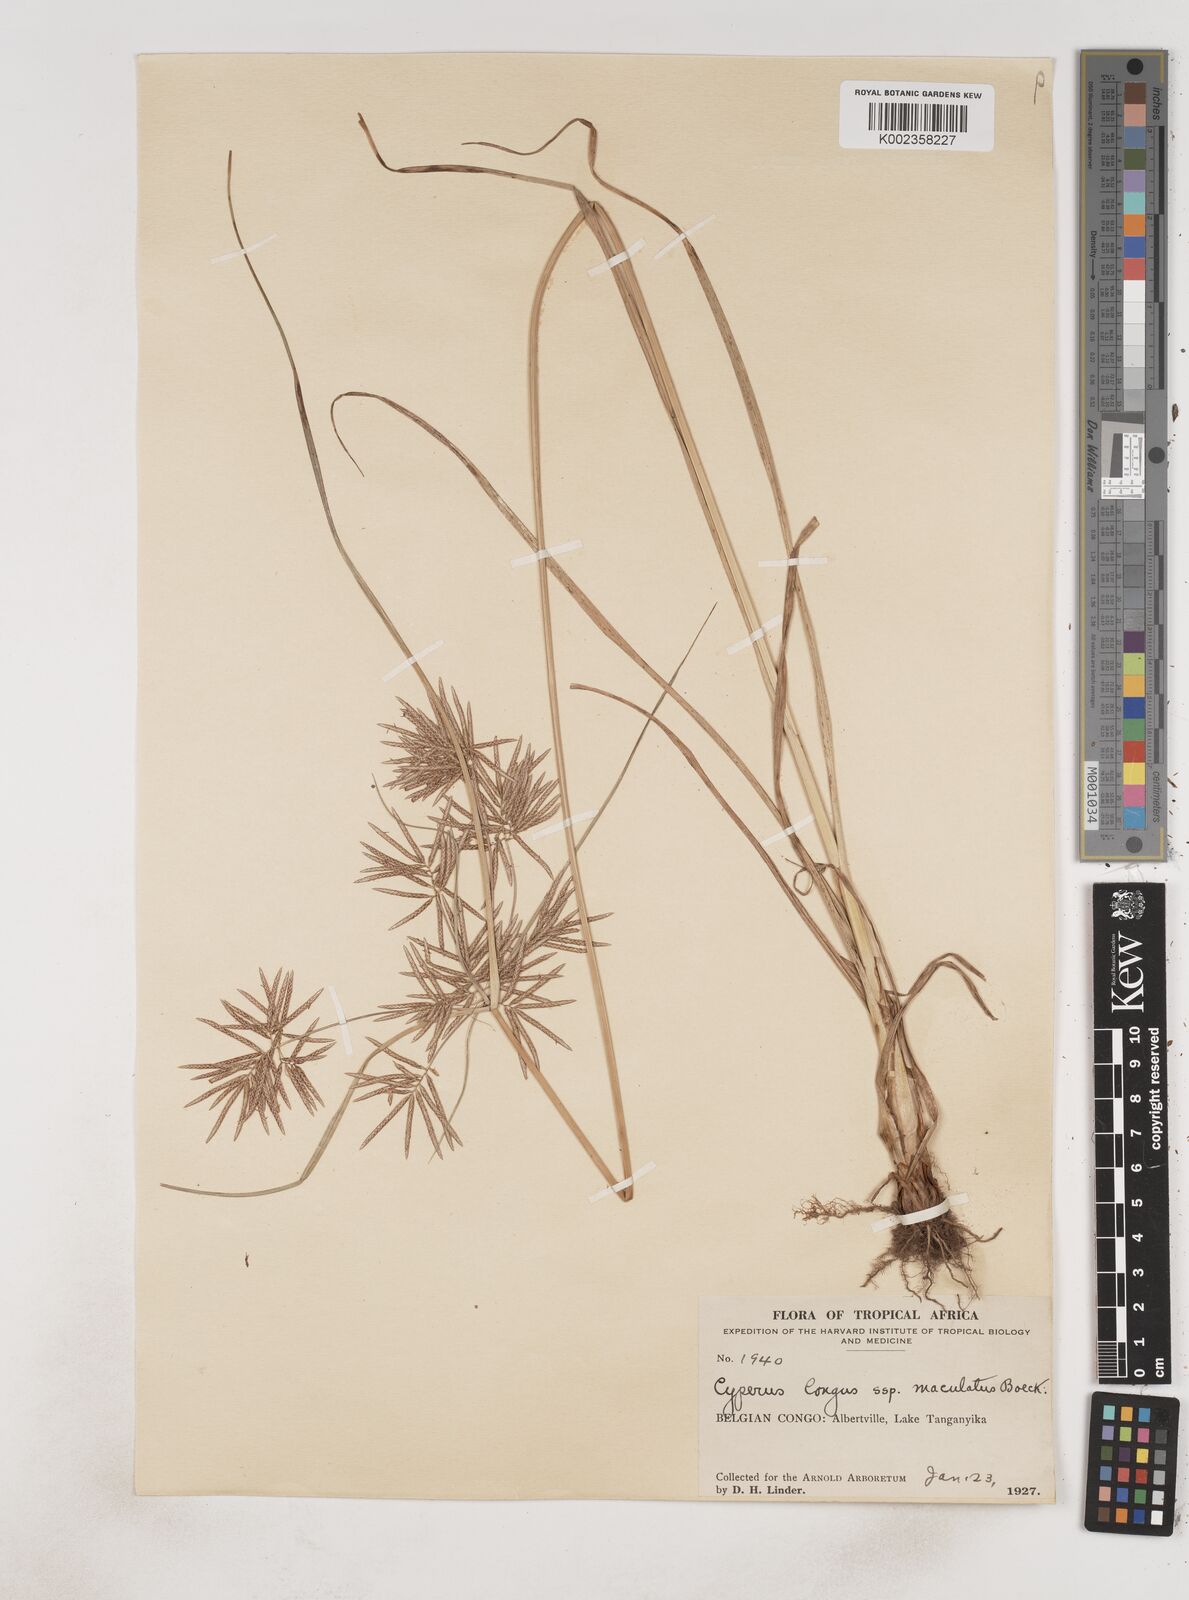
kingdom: Plantae
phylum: Tracheophyta
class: Liliopsida
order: Poales
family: Cyperaceae
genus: Cyperus
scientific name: Cyperus maculatus
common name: Maculated sedge
